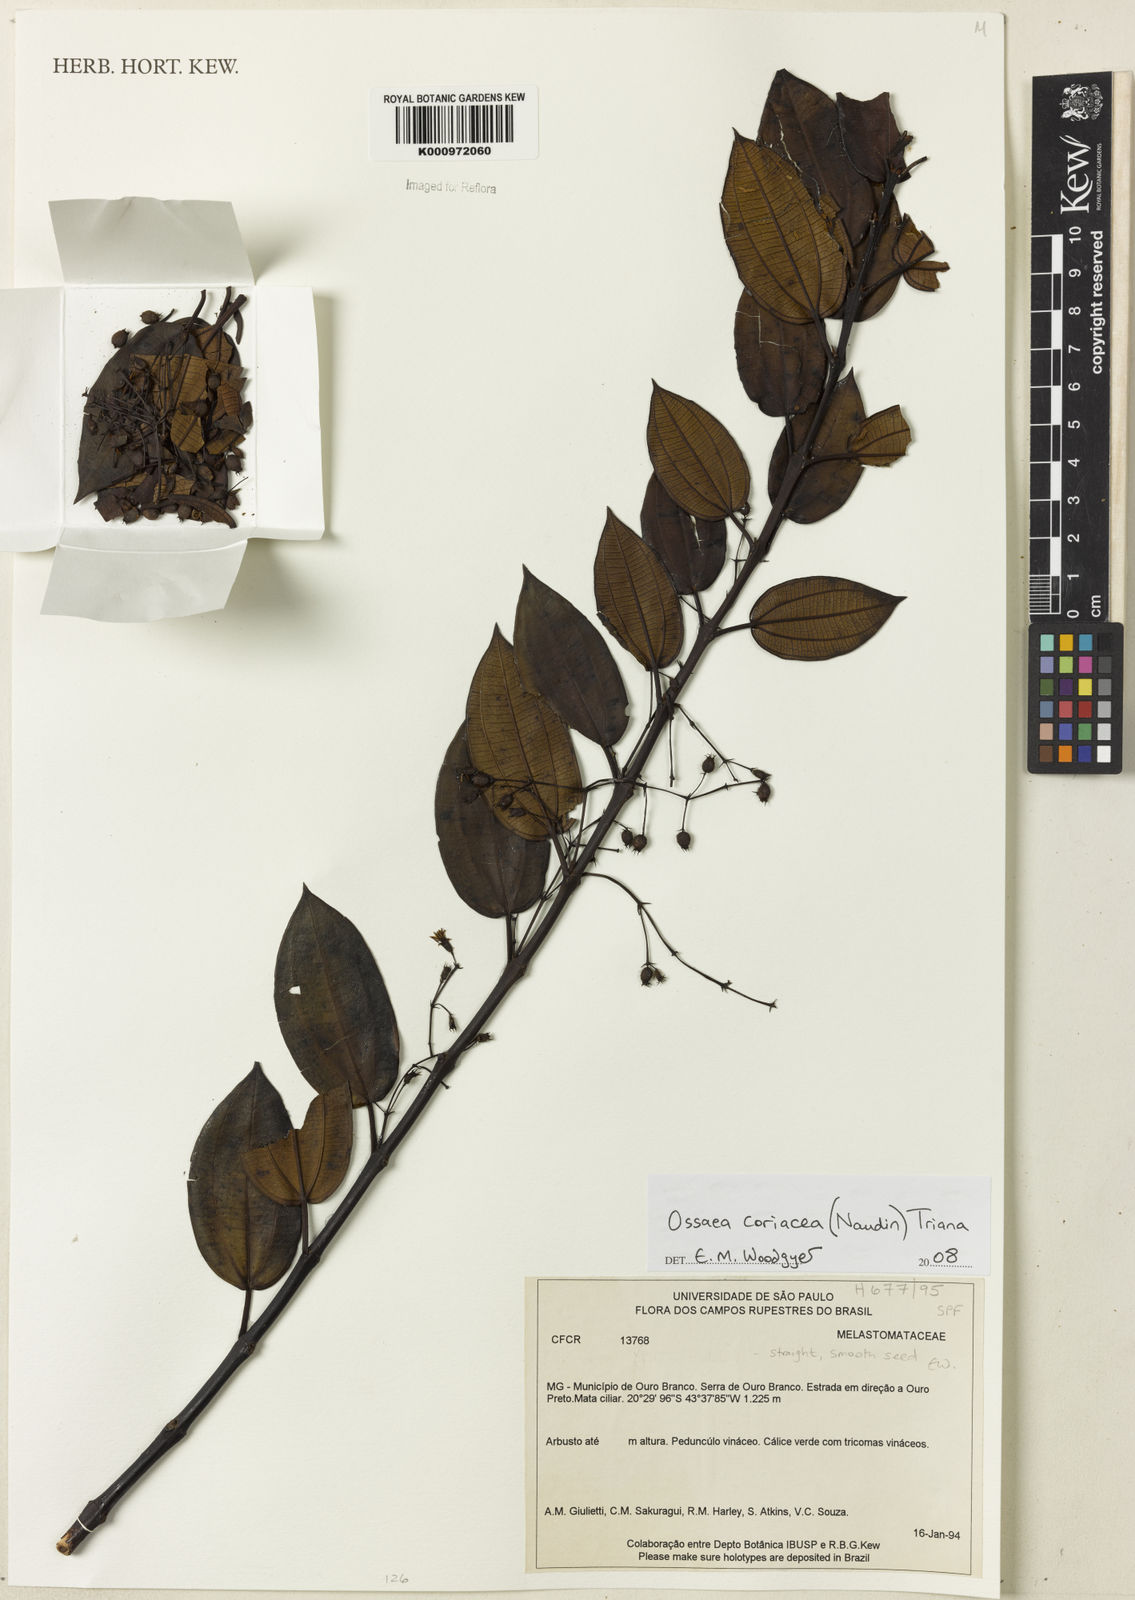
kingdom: Plantae
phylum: Tracheophyta
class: Magnoliopsida
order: Myrtales
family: Melastomataceae
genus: Miconia
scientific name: Miconia leacongestiflora
